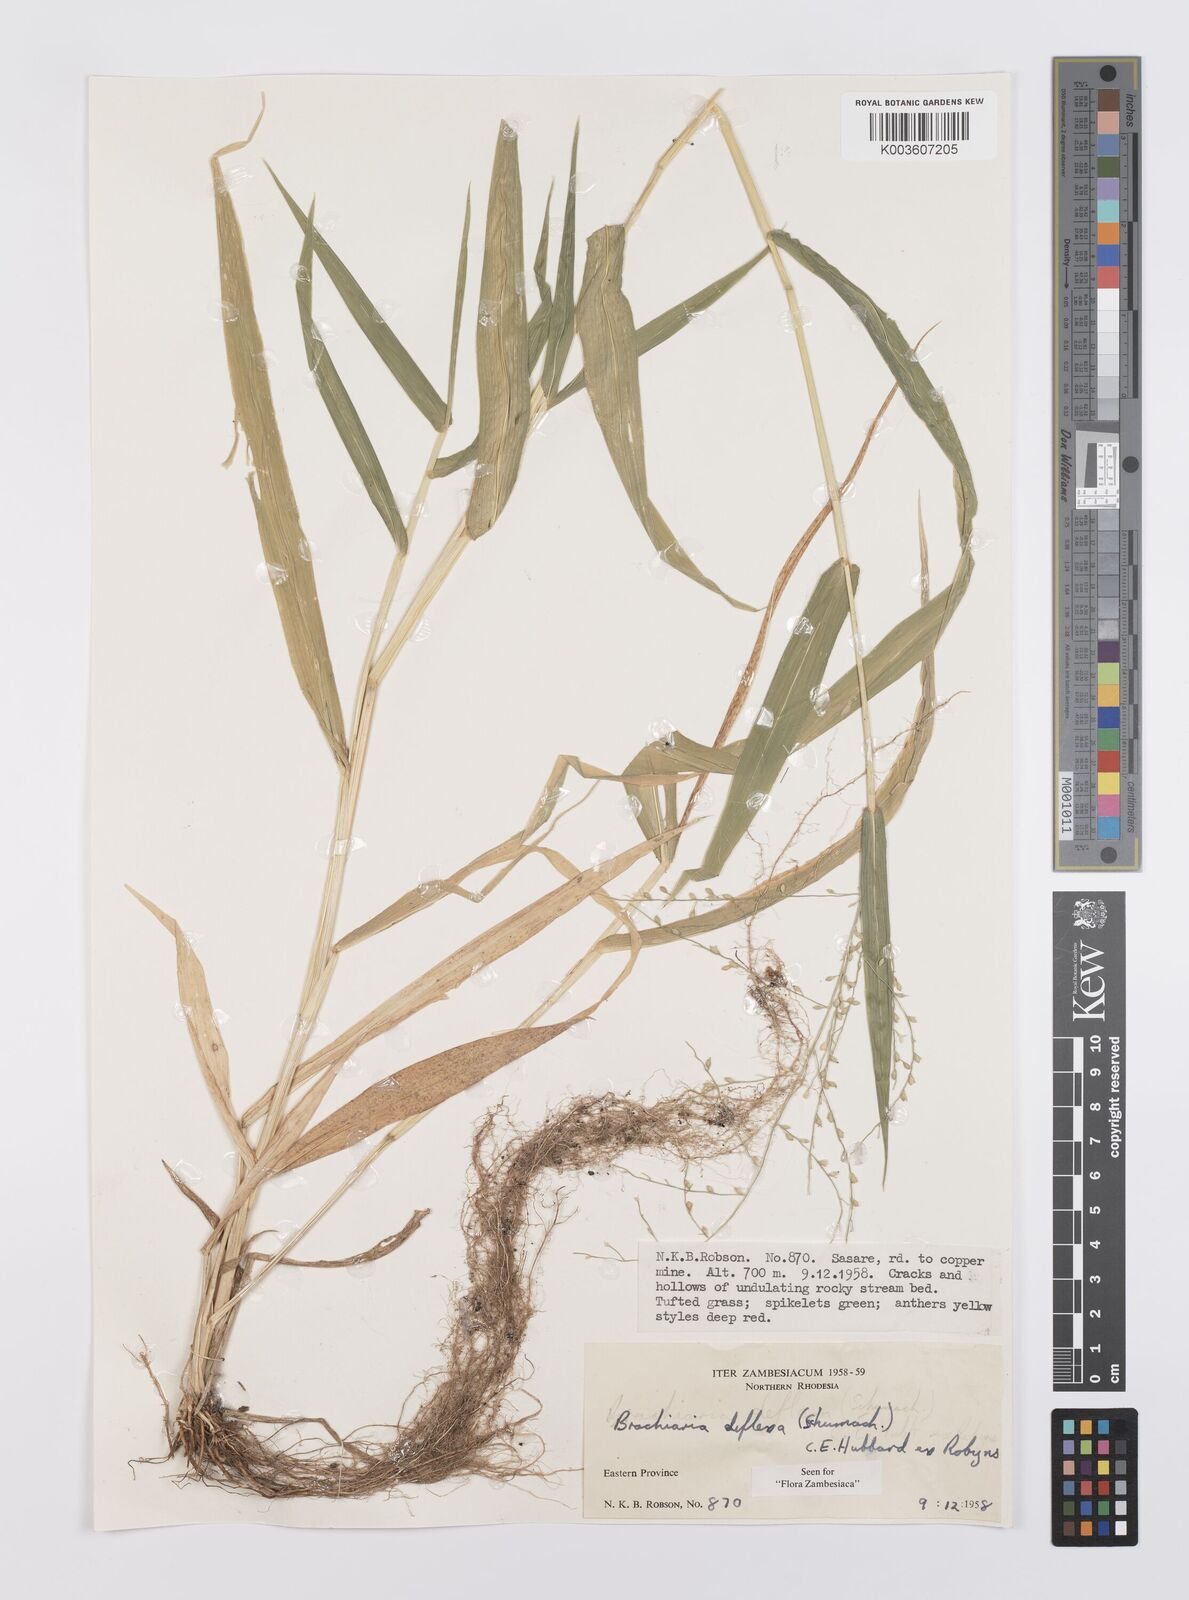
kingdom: Plantae
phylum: Tracheophyta
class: Liliopsida
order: Poales
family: Poaceae
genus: Urochloa
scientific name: Urochloa deflexa
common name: Guinea millet
